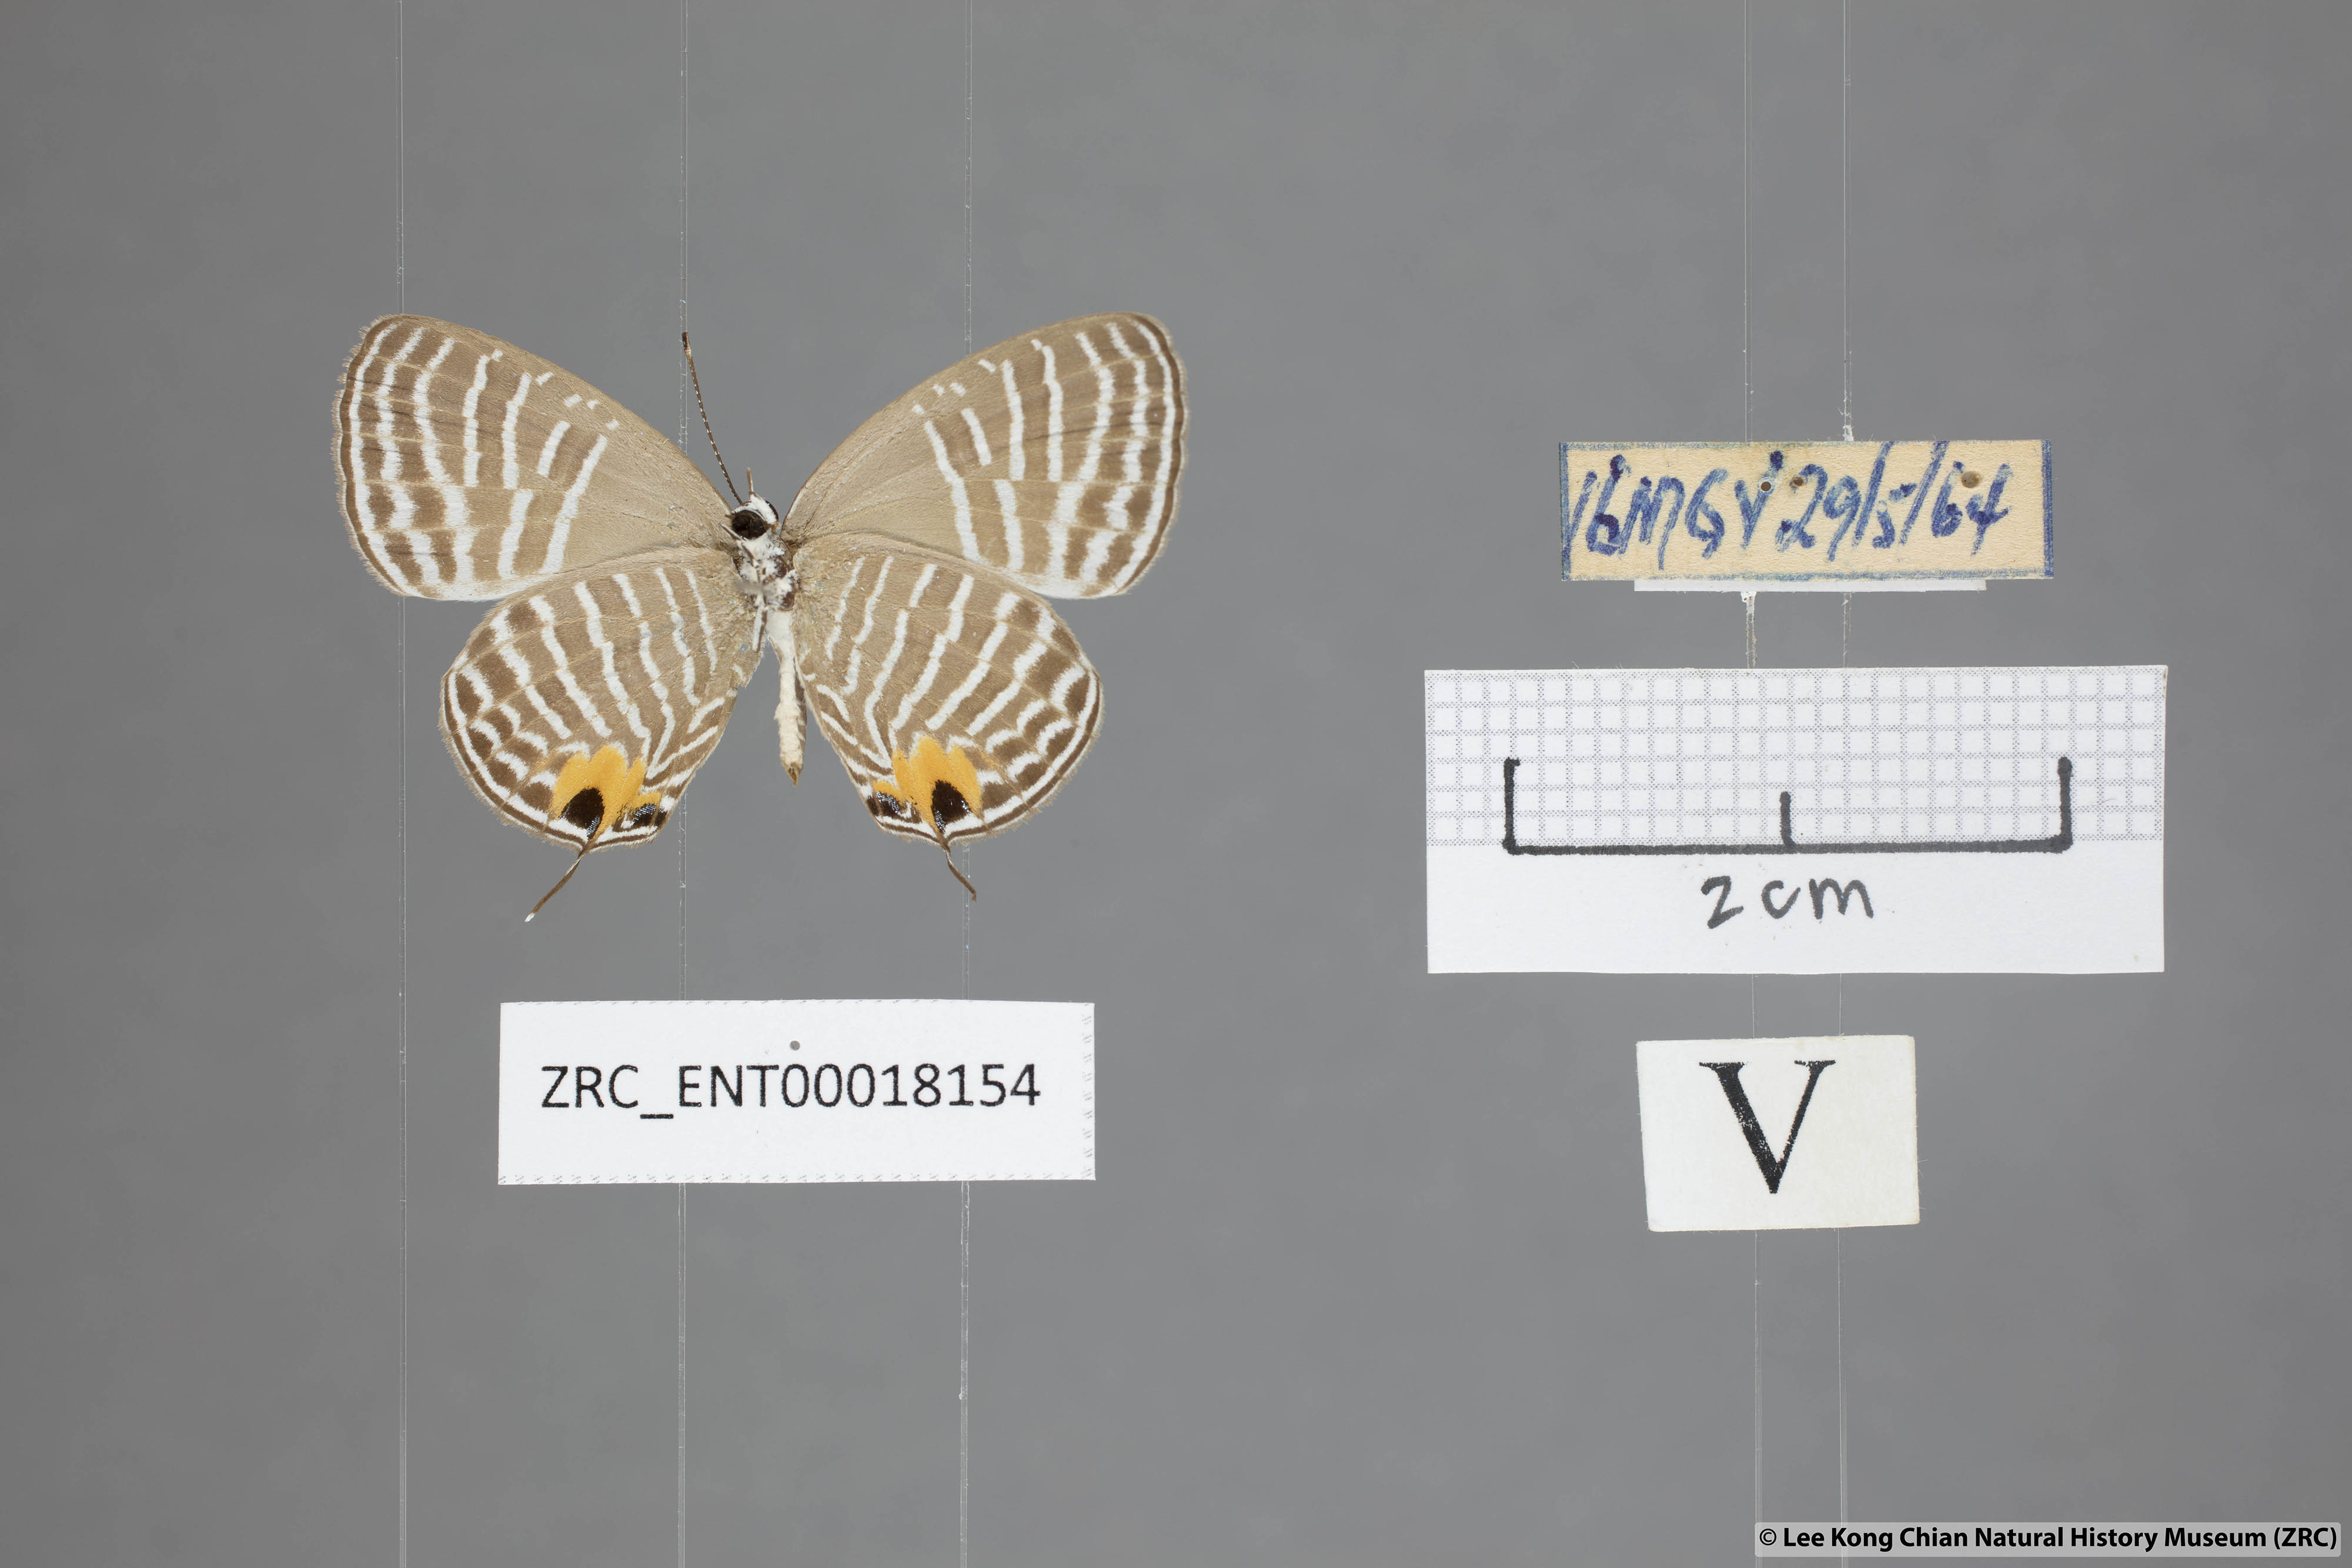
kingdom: Animalia
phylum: Arthropoda
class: Insecta
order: Lepidoptera
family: Lycaenidae
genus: Jamides
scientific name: Jamides parasaturata
